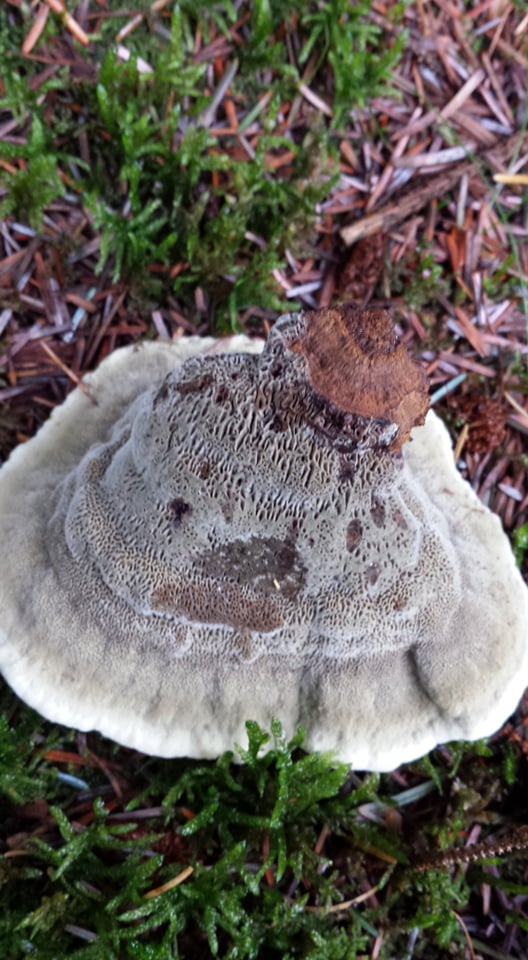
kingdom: Fungi
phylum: Basidiomycota
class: Agaricomycetes
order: Polyporales
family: Laetiporaceae
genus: Phaeolus
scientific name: Phaeolus schweinitzii
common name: brunporesvamp
